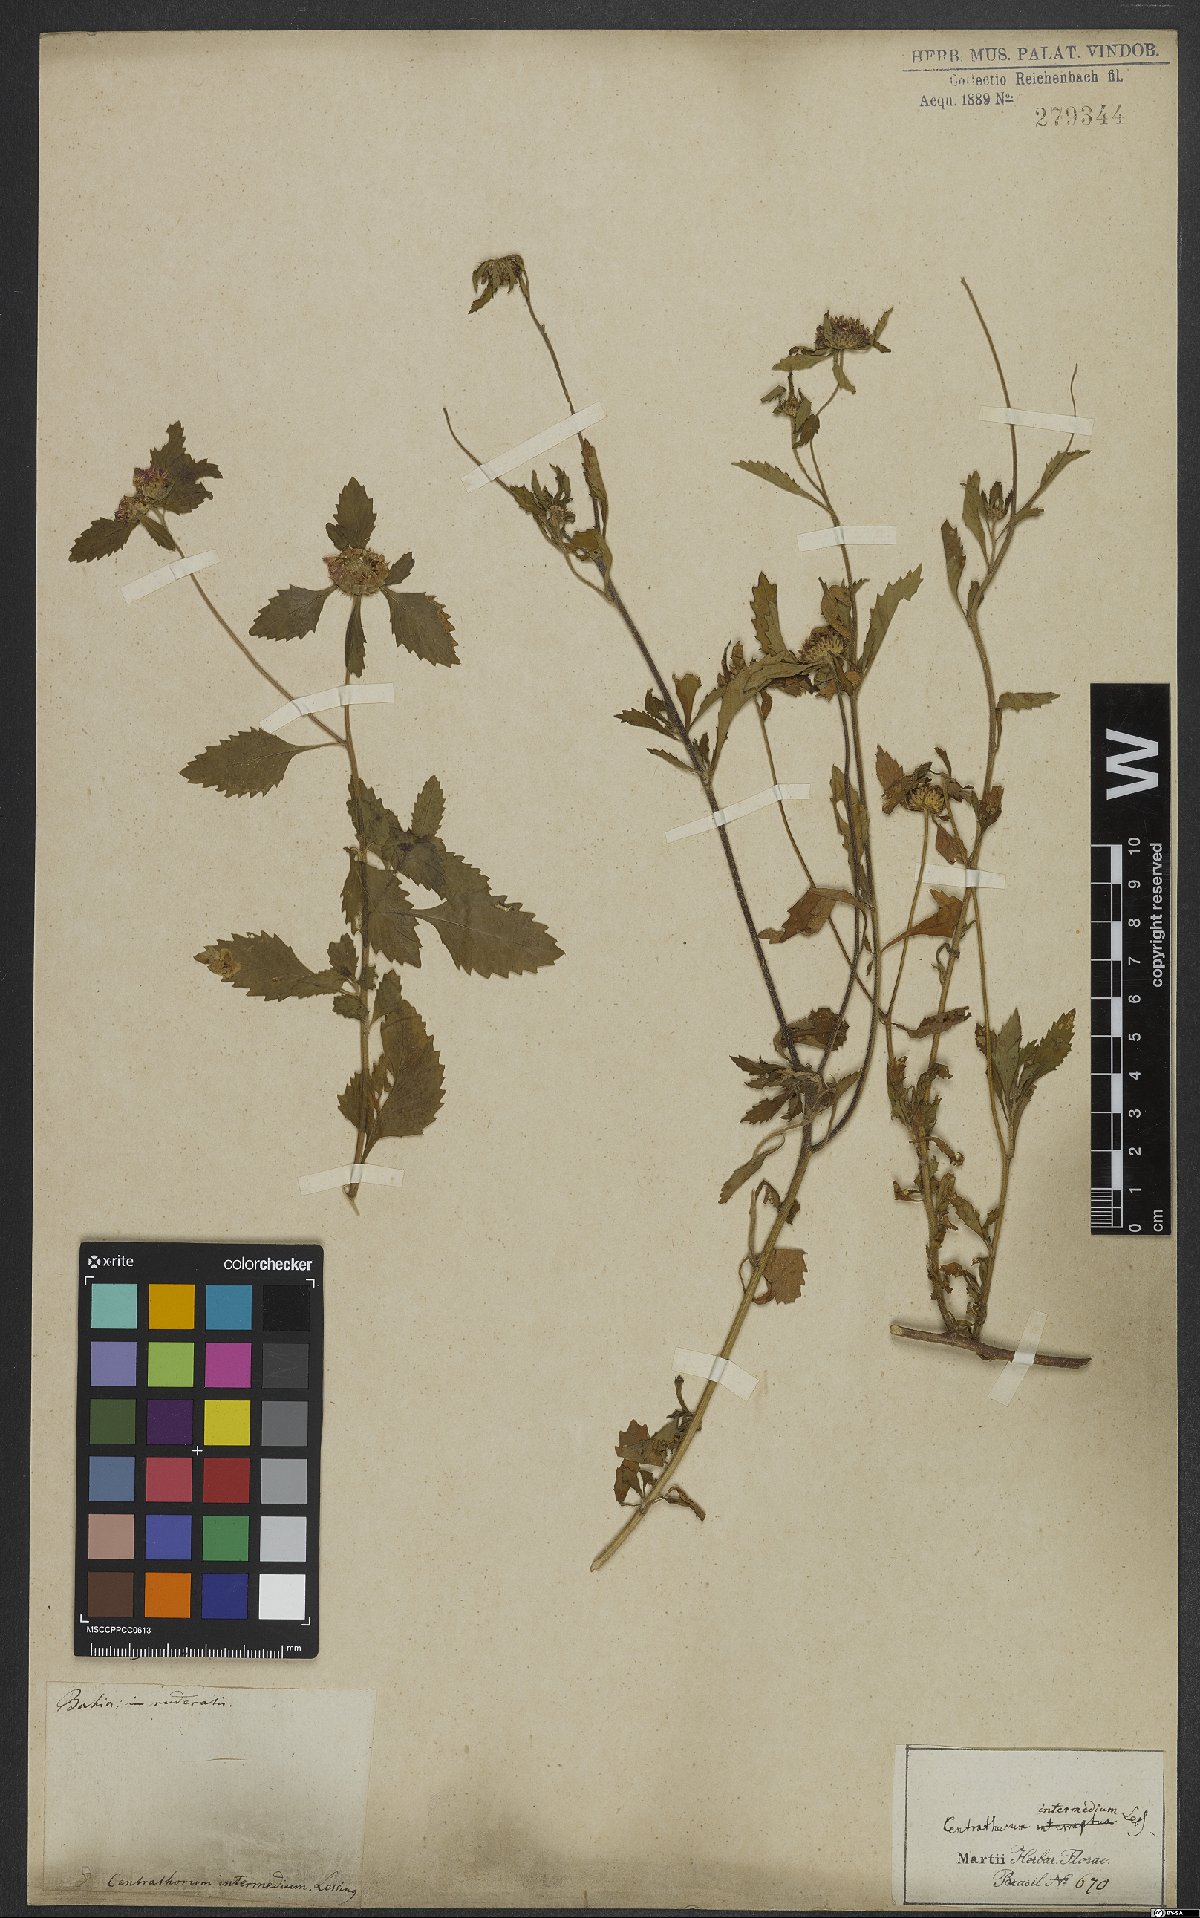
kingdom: Plantae
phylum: Tracheophyta
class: Magnoliopsida
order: Asterales
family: Asteraceae
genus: Centratherum
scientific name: Centratherum punctatum
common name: Larkdaisy
